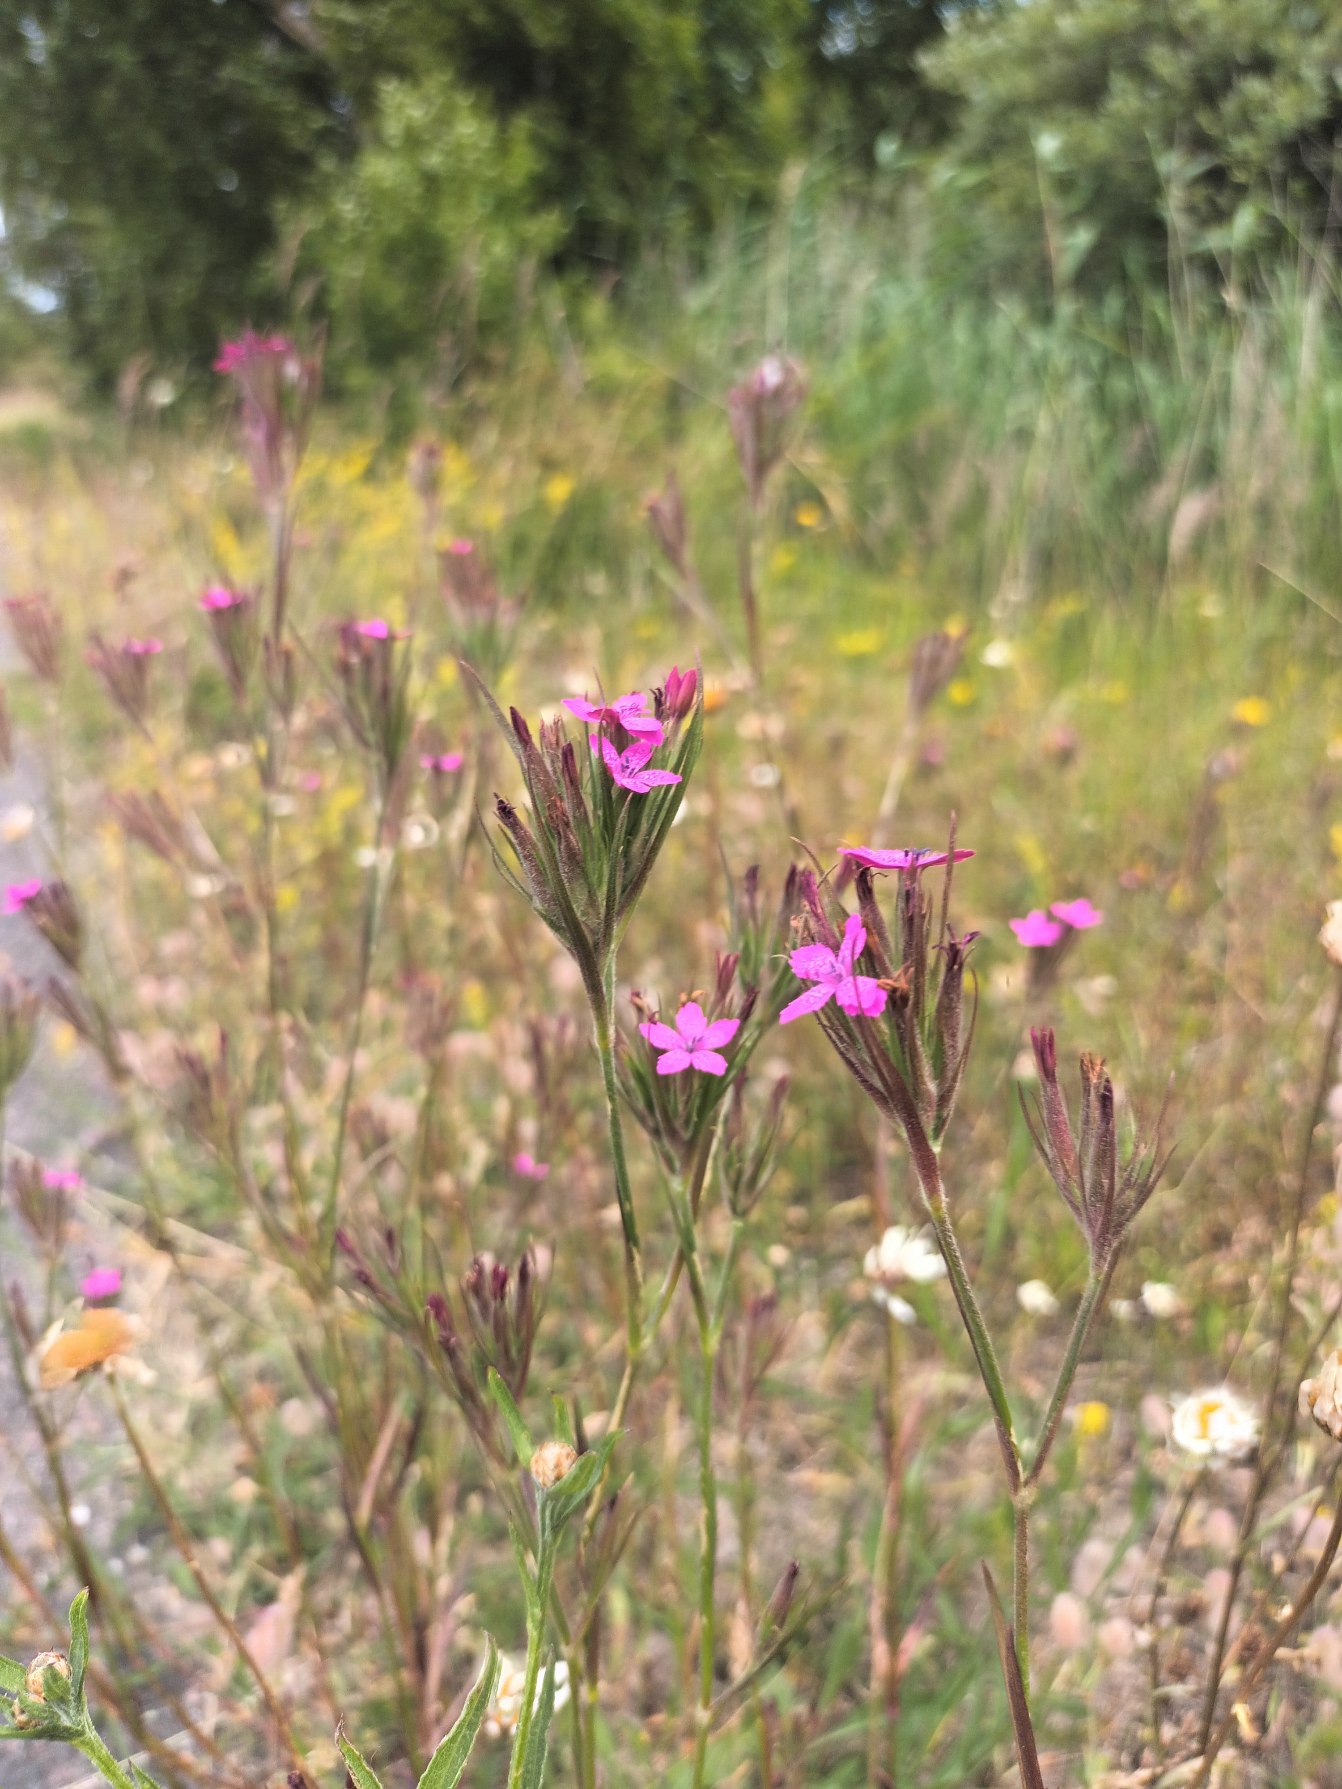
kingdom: Plantae
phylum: Tracheophyta
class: Magnoliopsida
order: Caryophyllales
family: Caryophyllaceae
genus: Dianthus
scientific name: Dianthus armeria
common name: Kost-nellike
